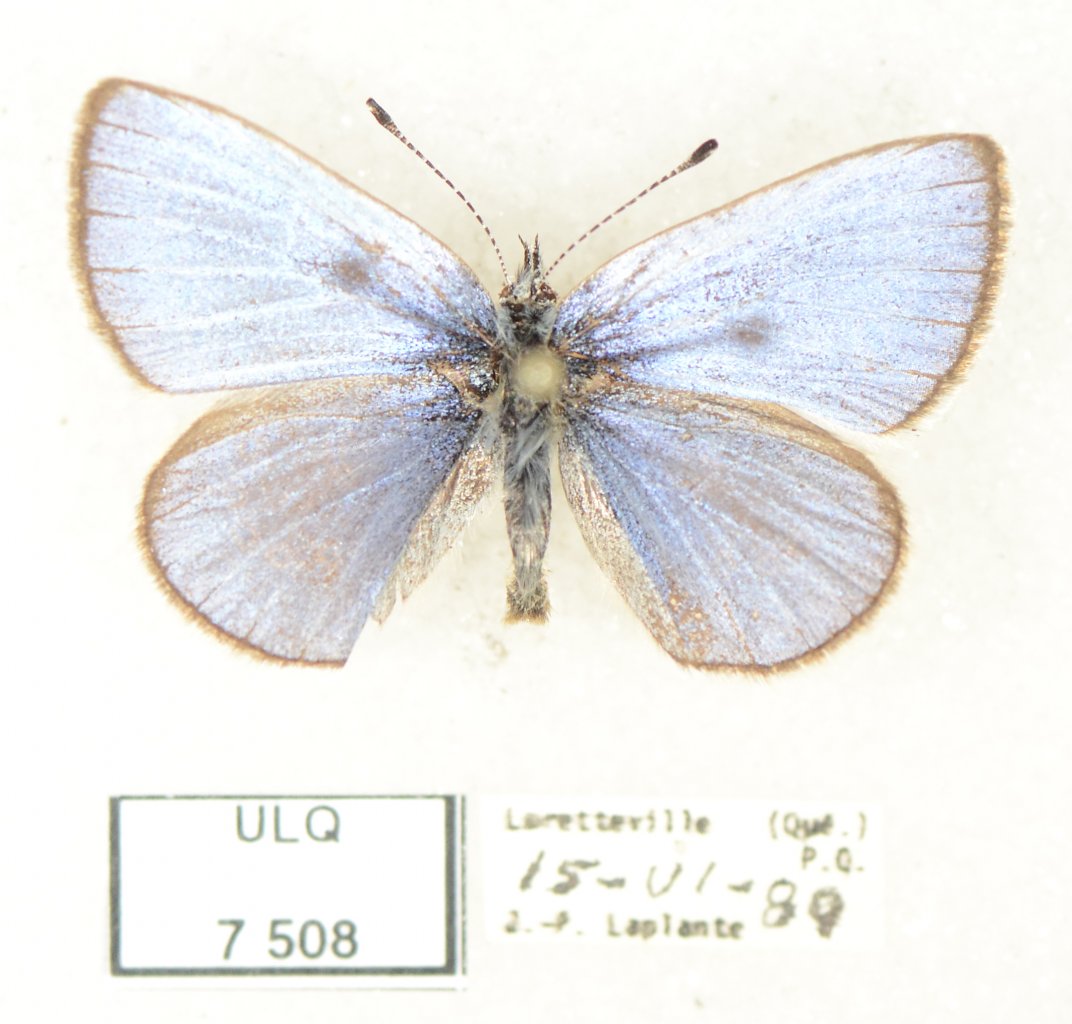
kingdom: Animalia
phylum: Arthropoda
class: Insecta
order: Lepidoptera
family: Lycaenidae
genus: Celastrina
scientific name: Celastrina lucia
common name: Northern Spring Azure
